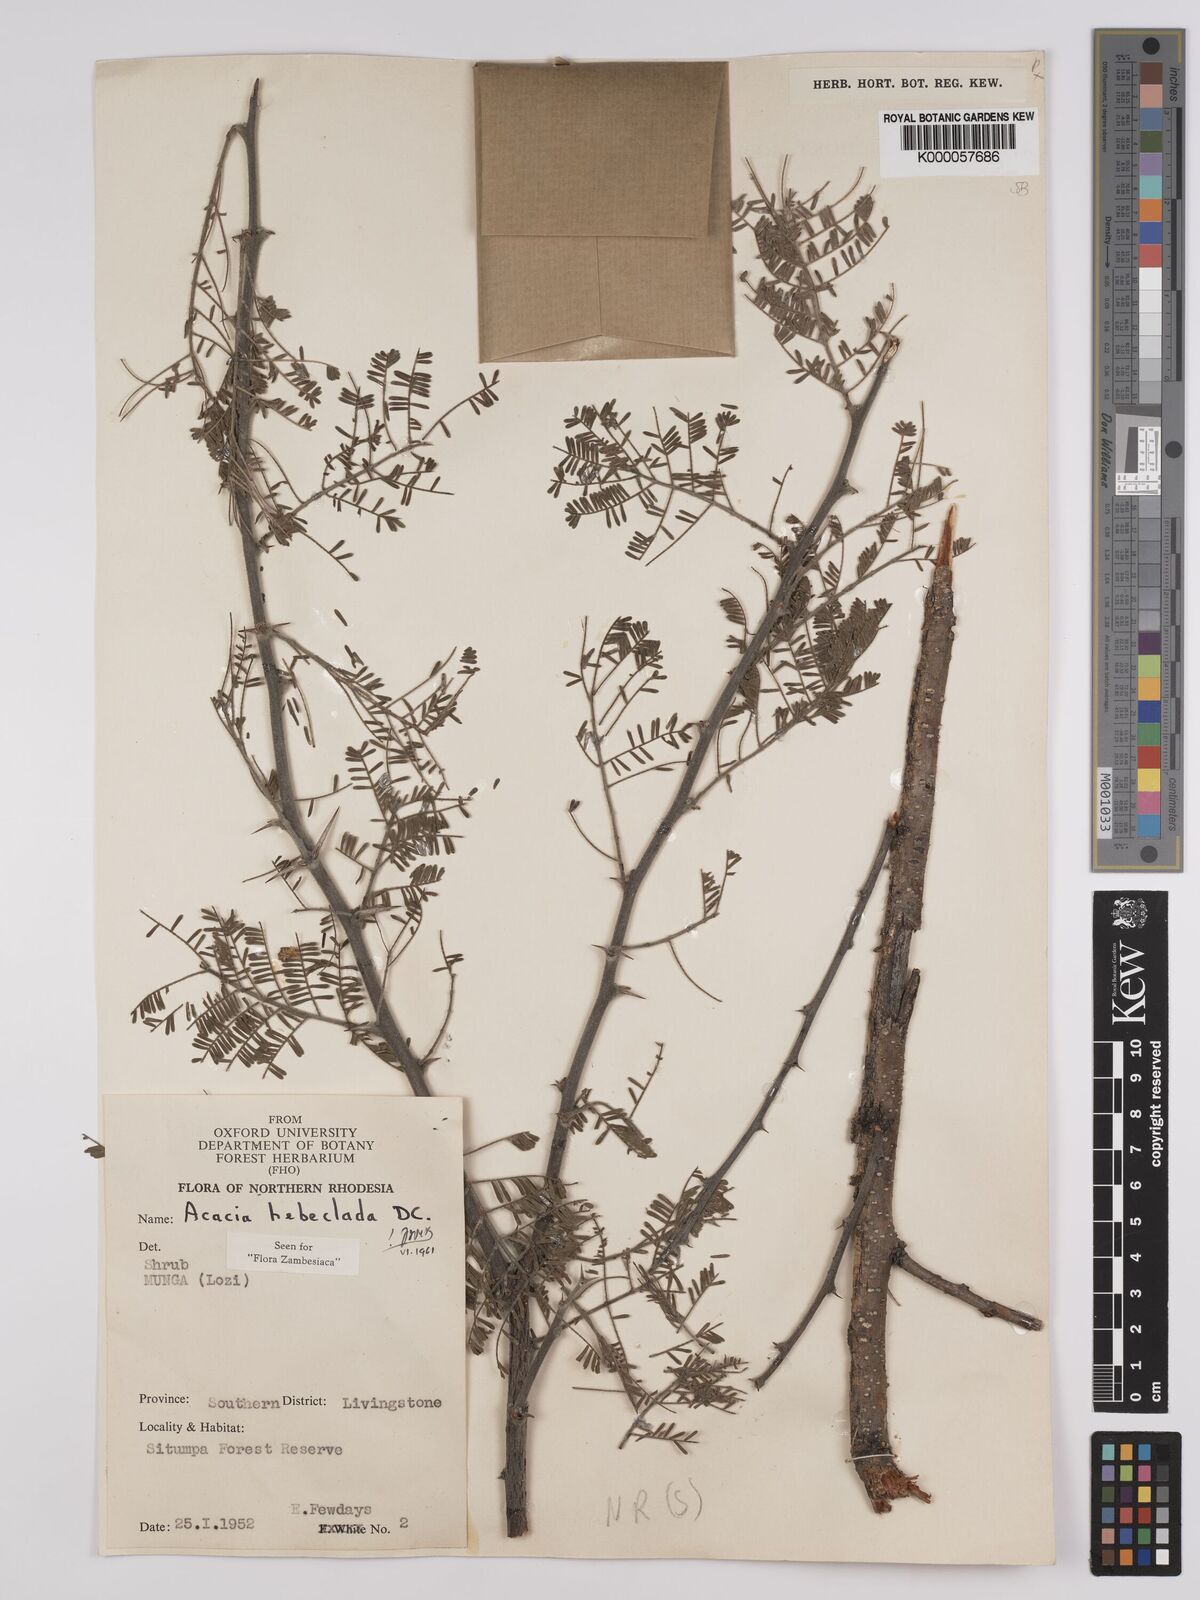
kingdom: Plantae
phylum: Tracheophyta
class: Magnoliopsida
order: Fabales
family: Fabaceae
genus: Vachellia
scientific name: Vachellia hebeclada
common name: Candle thorn
